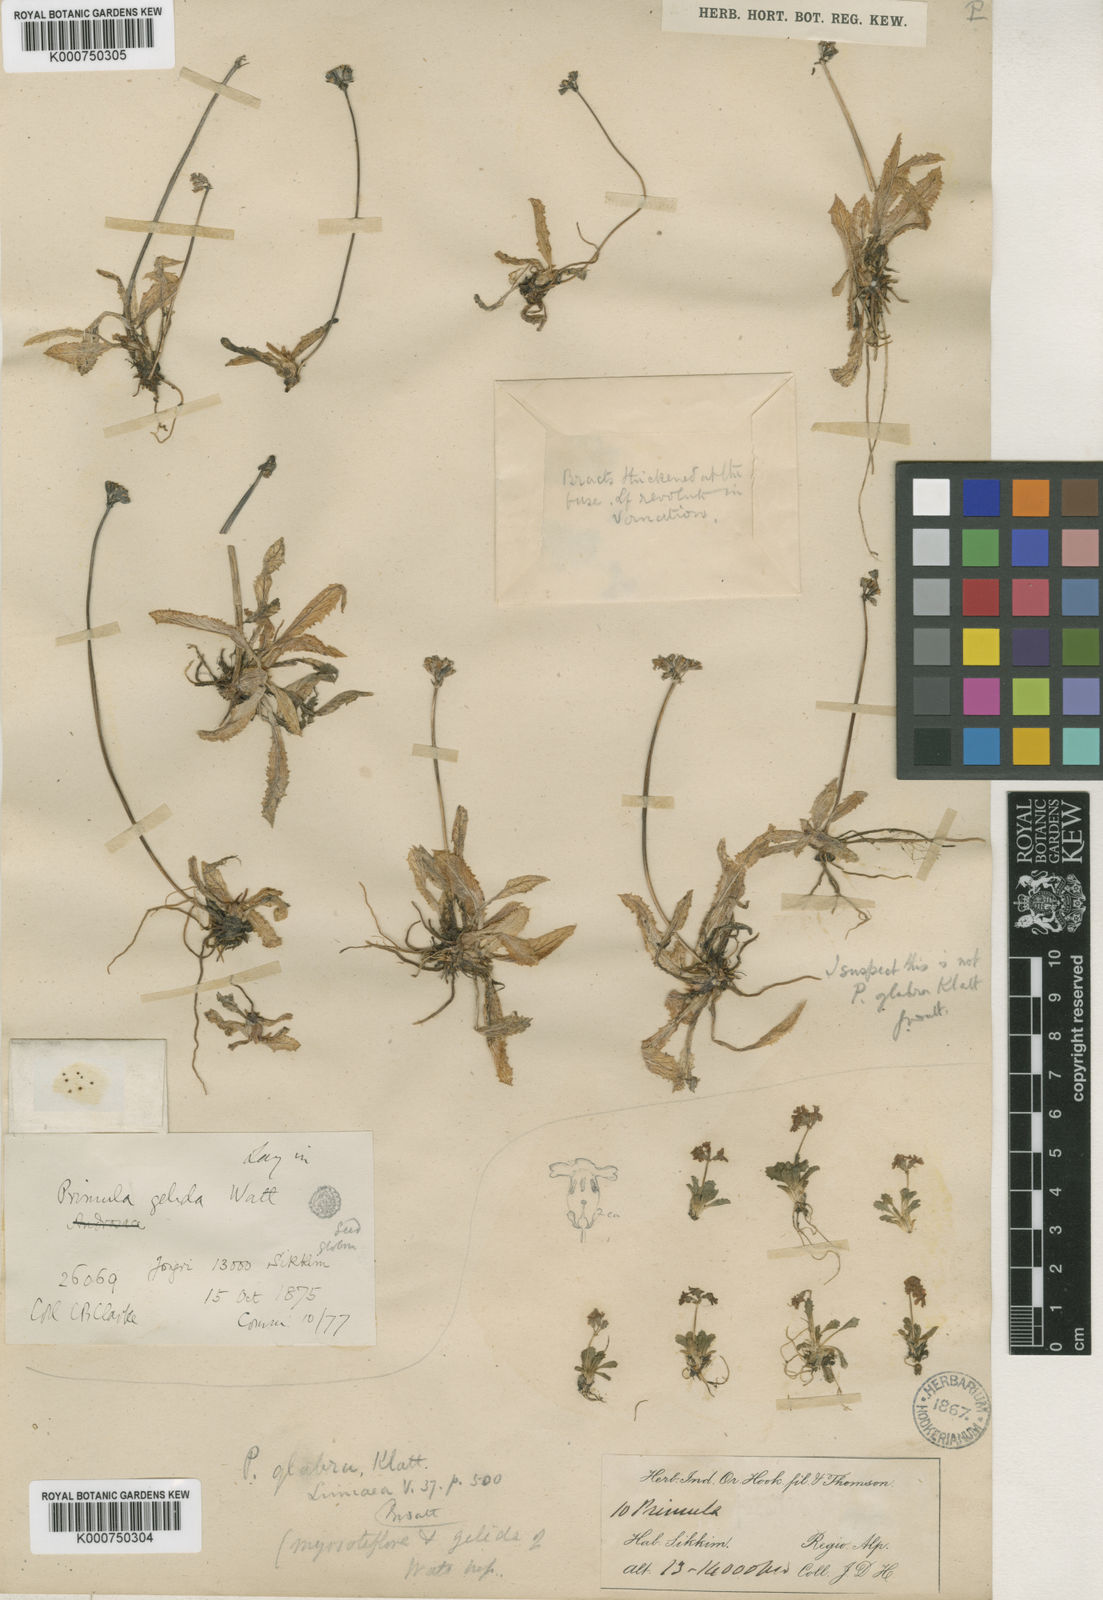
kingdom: Plantae
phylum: Tracheophyta
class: Magnoliopsida
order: Ericales
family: Primulaceae
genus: Primula
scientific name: Primula glabra
